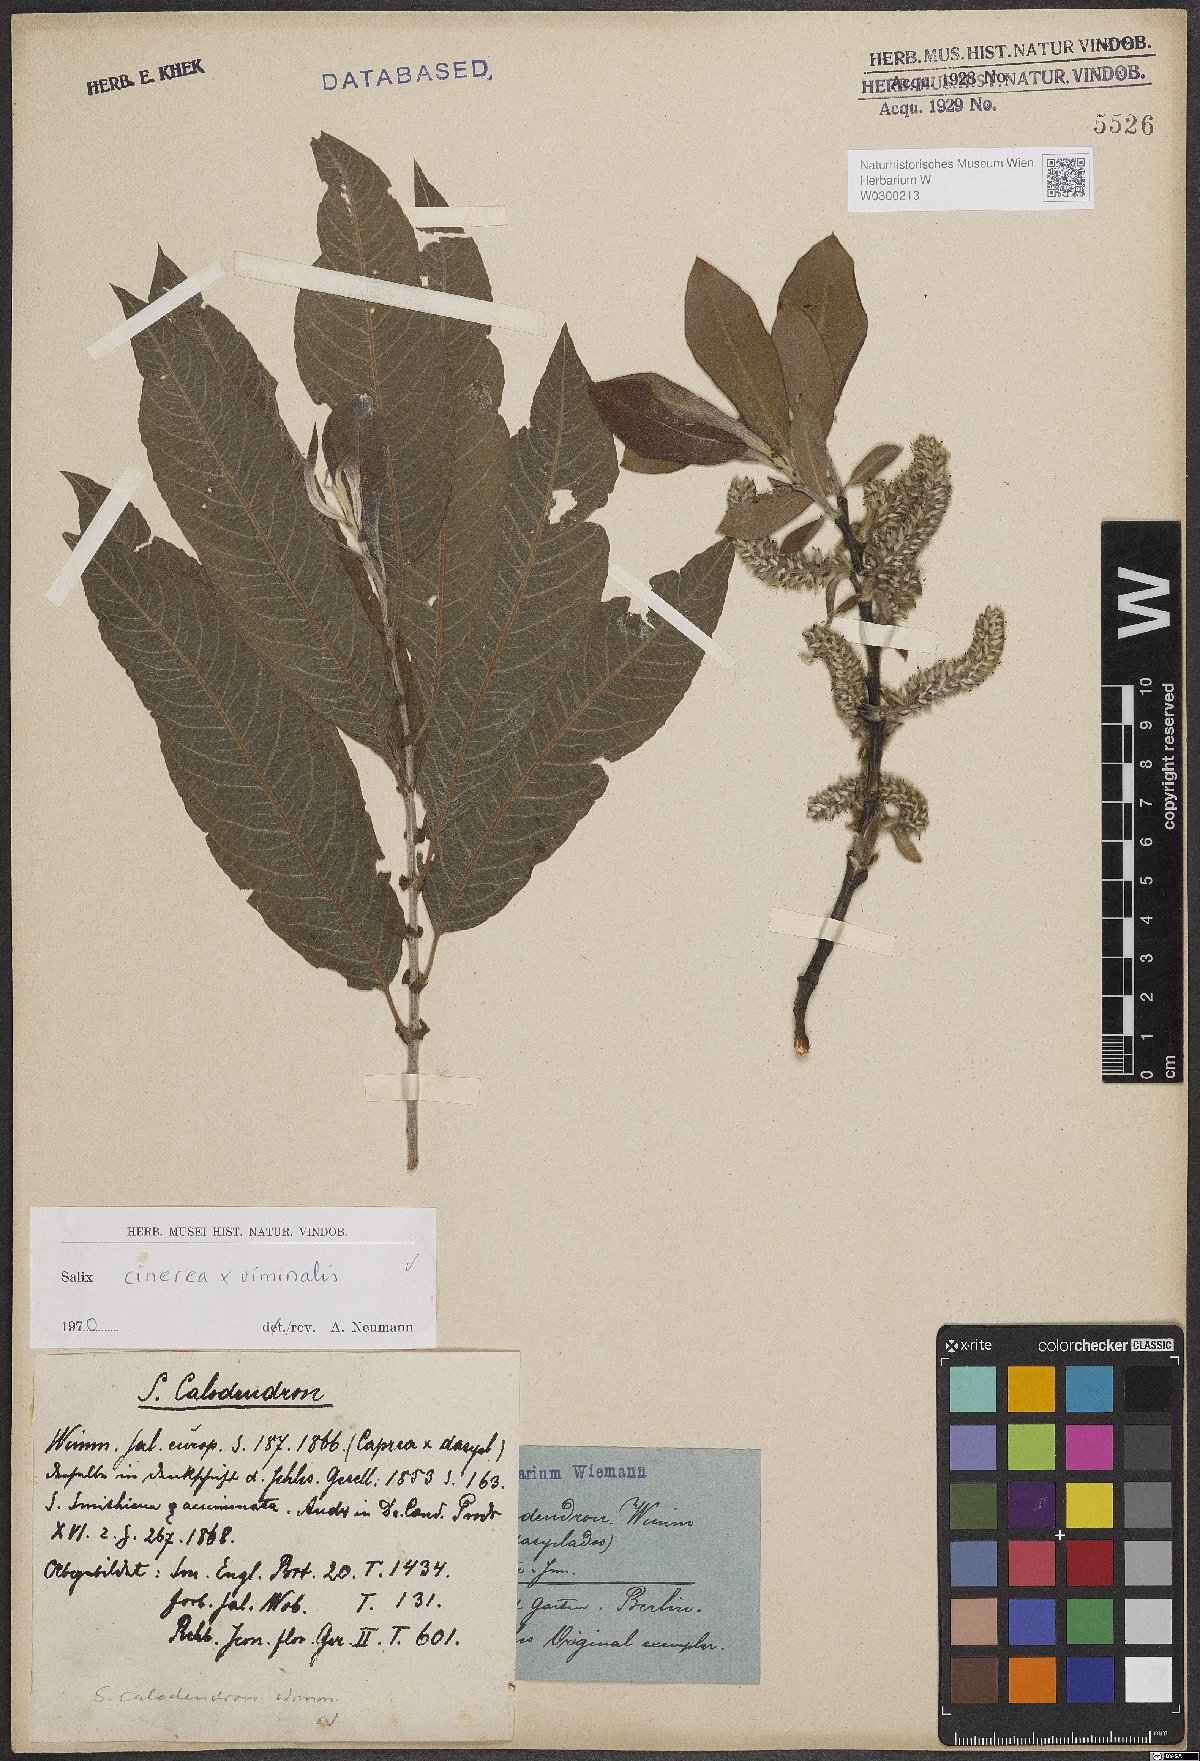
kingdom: Plantae
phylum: Tracheophyta
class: Magnoliopsida
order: Malpighiales
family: Salicaceae
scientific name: Salicaceae
